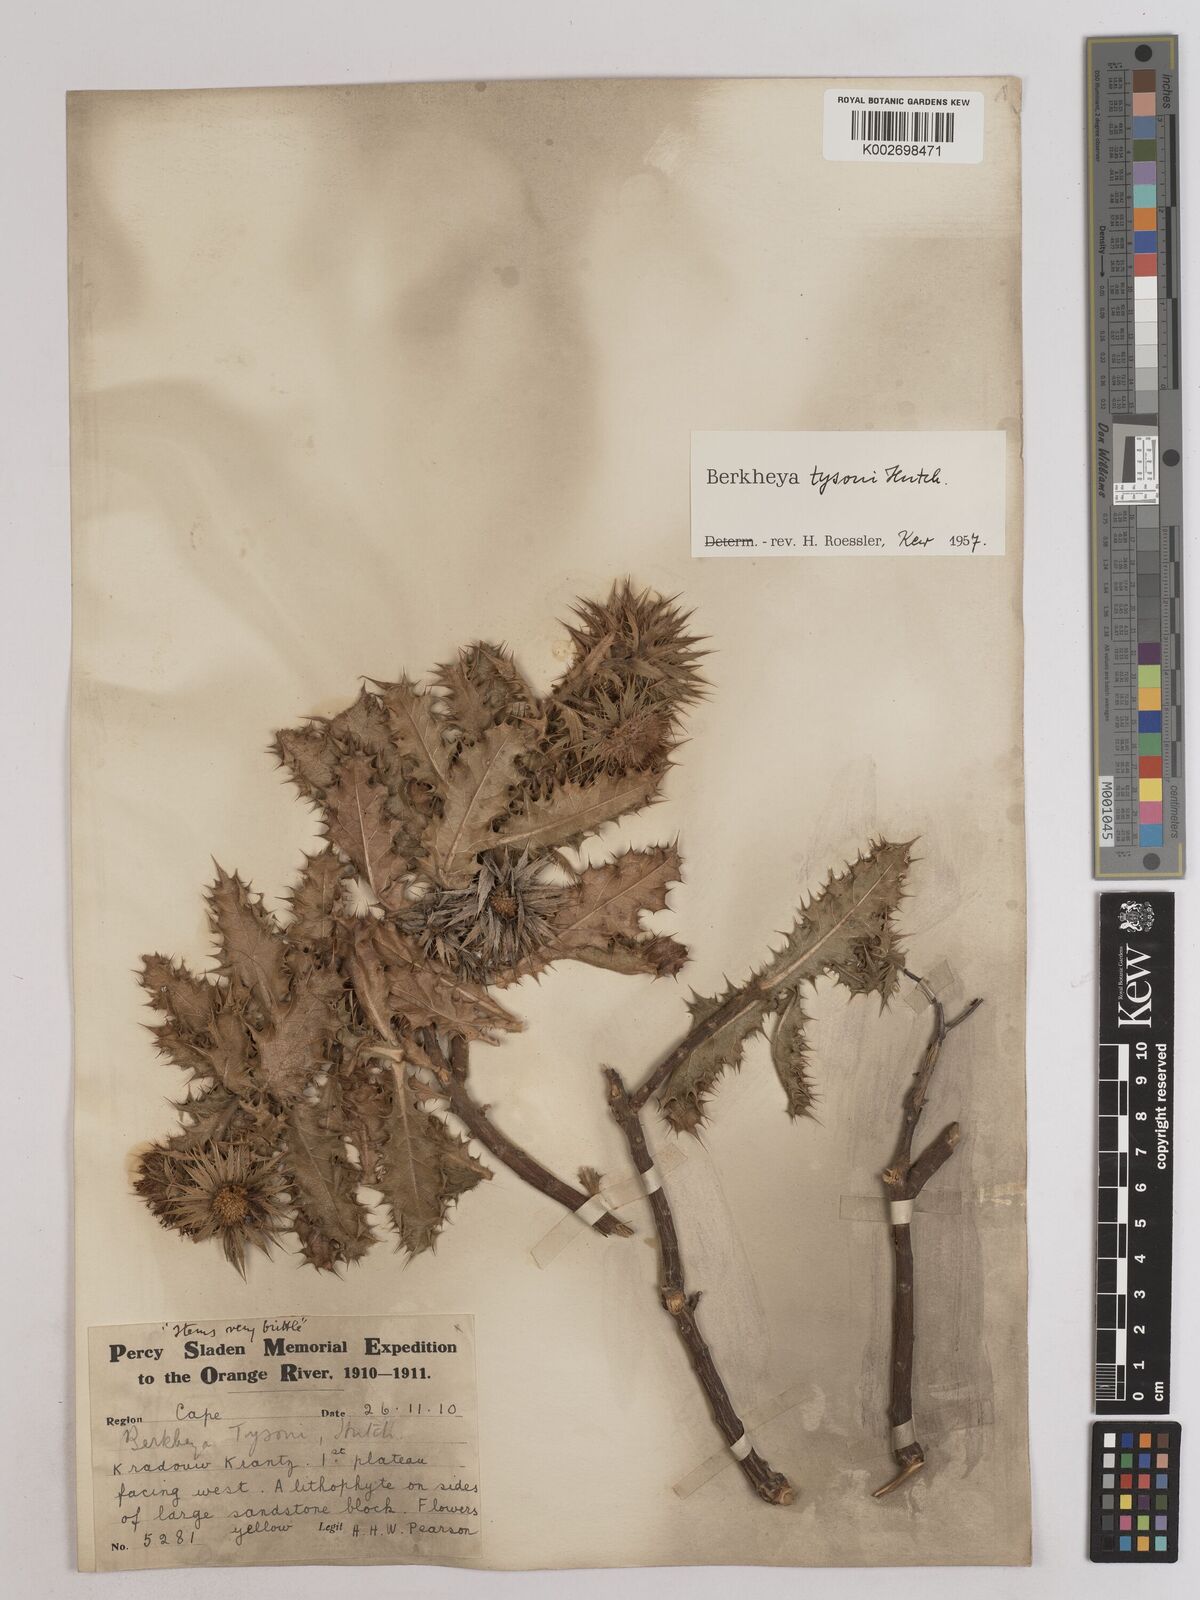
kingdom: Plantae
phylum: Tracheophyta
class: Magnoliopsida
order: Asterales
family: Asteraceae
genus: Berkheya
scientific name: Berkheya tysonii
